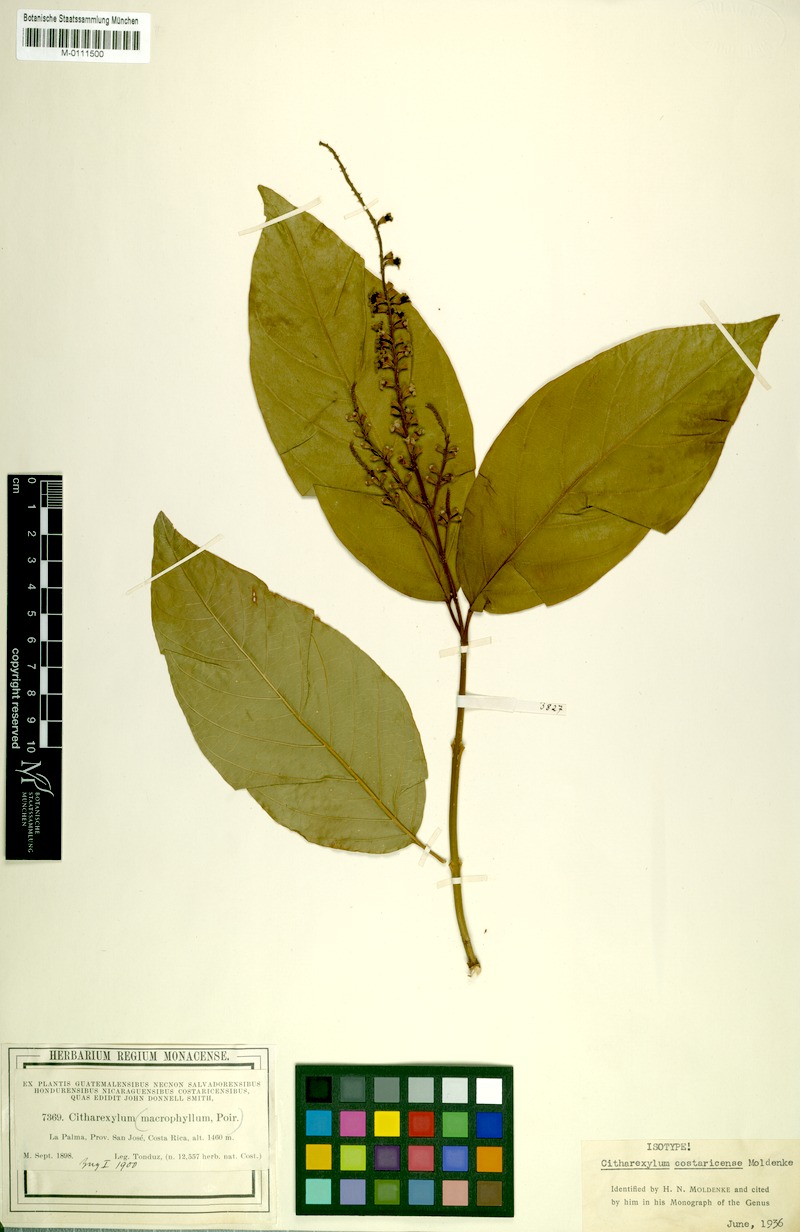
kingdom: Plantae
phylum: Tracheophyta
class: Magnoliopsida
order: Lamiales
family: Verbenaceae
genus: Citharexylum
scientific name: Citharexylum costaricense
